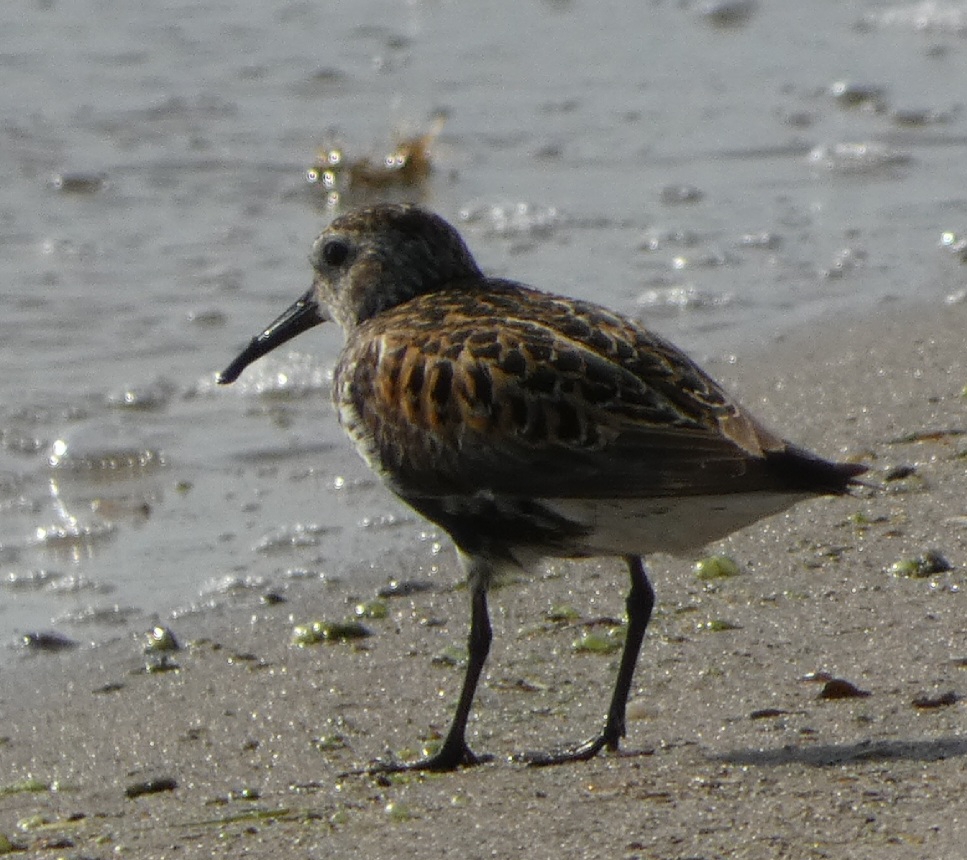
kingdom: Animalia
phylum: Chordata
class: Aves
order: Charadriiformes
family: Scolopacidae
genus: Calidris
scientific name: Calidris alpina
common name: Almindelig ryle
